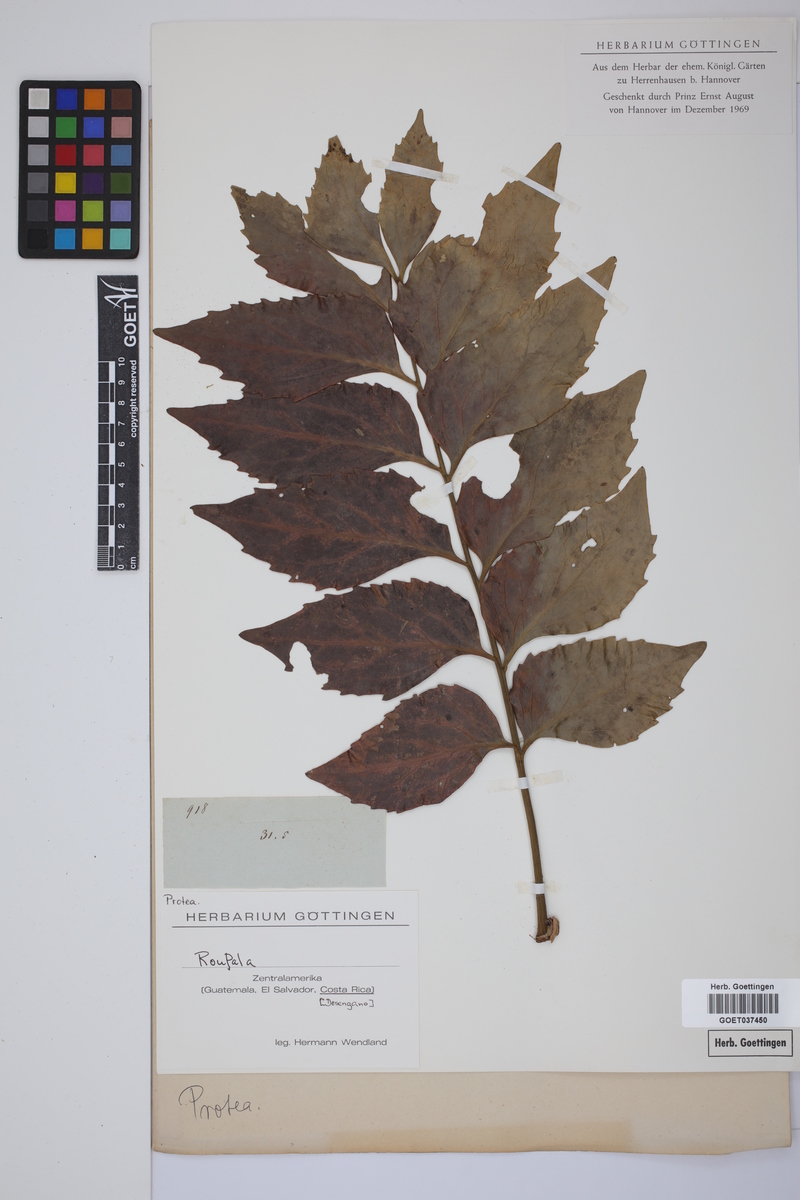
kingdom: Plantae
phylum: Tracheophyta
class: Magnoliopsida
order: Proteales
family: Proteaceae
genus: Roupala
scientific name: Roupala
